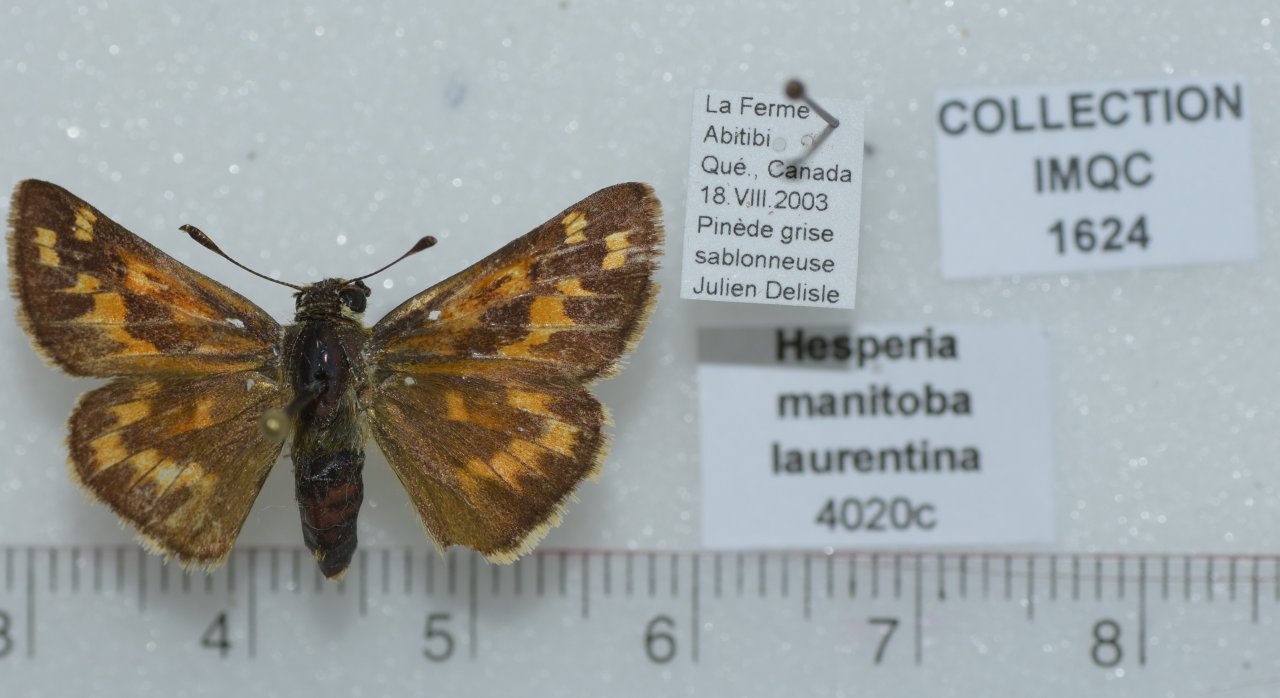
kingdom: Animalia
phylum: Arthropoda
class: Insecta
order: Lepidoptera
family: Hesperiidae
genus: Hesperia
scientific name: Hesperia comma
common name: Common Branded Skipper
